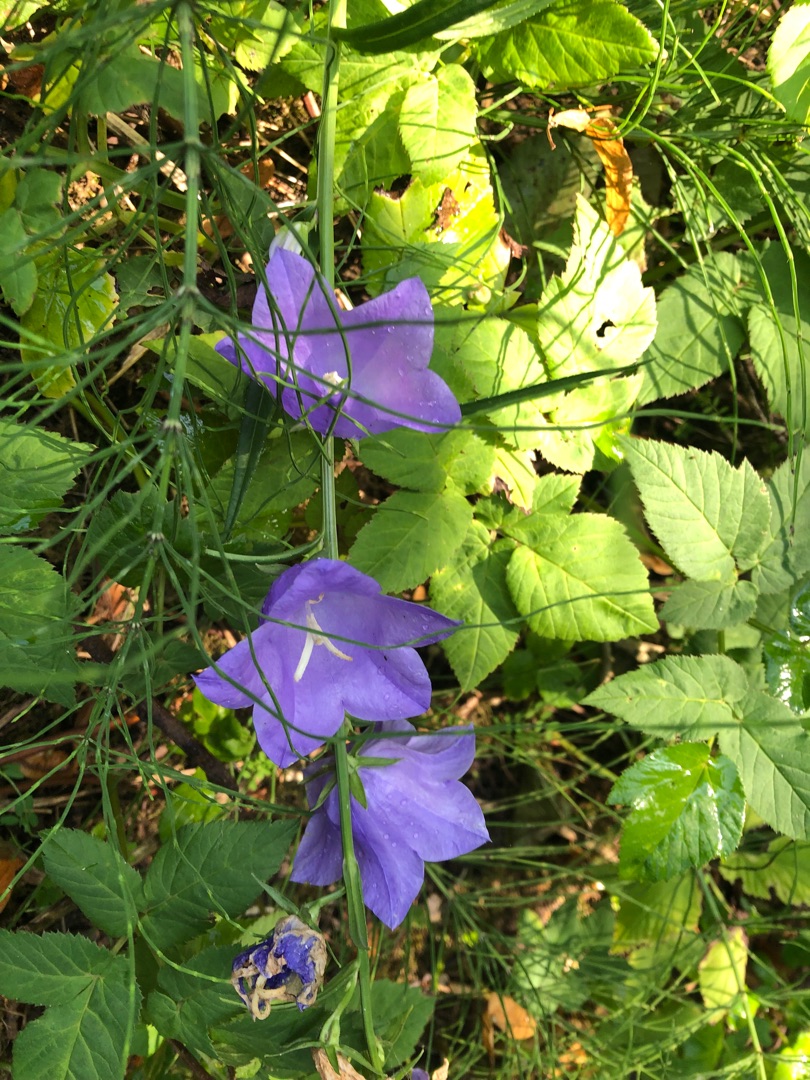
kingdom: Plantae
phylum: Tracheophyta
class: Magnoliopsida
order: Asterales
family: Campanulaceae
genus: Campanula
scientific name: Campanula persicifolia
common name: Smalbladet klokke
